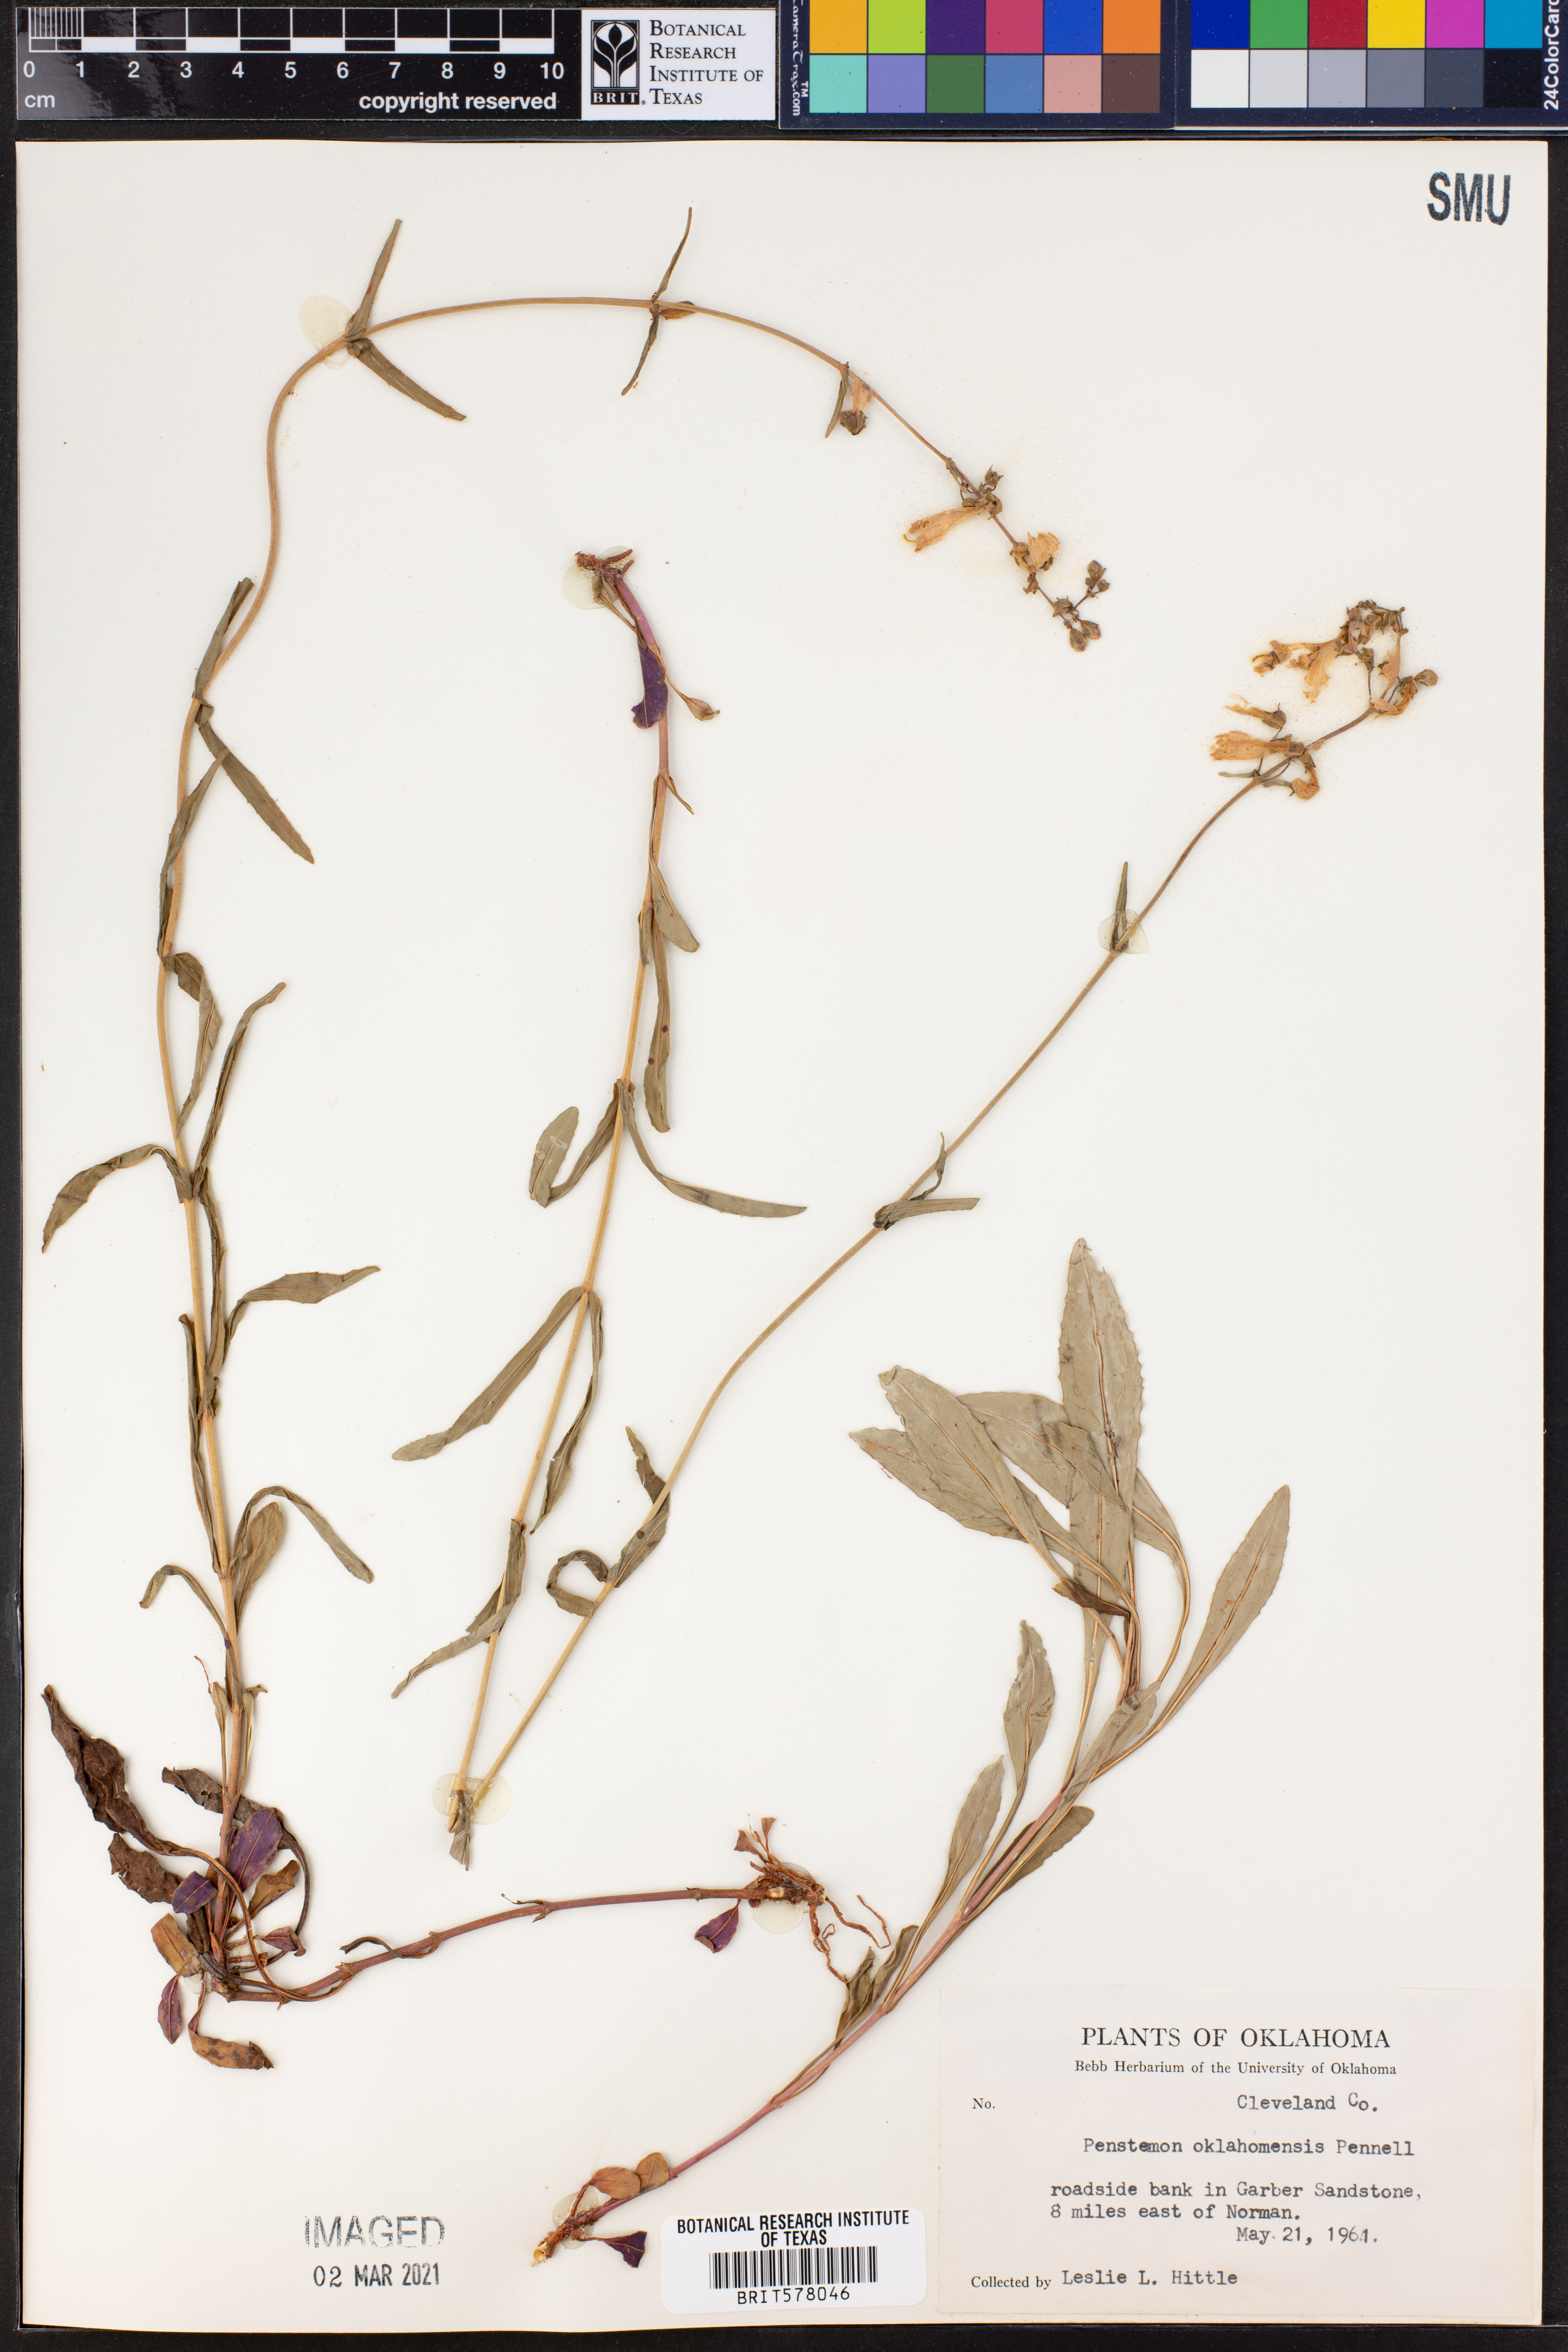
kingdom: Plantae
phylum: Tracheophyta
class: Magnoliopsida
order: Lamiales
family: Plantaginaceae
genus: Penstemon
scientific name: Penstemon oklahomensis
